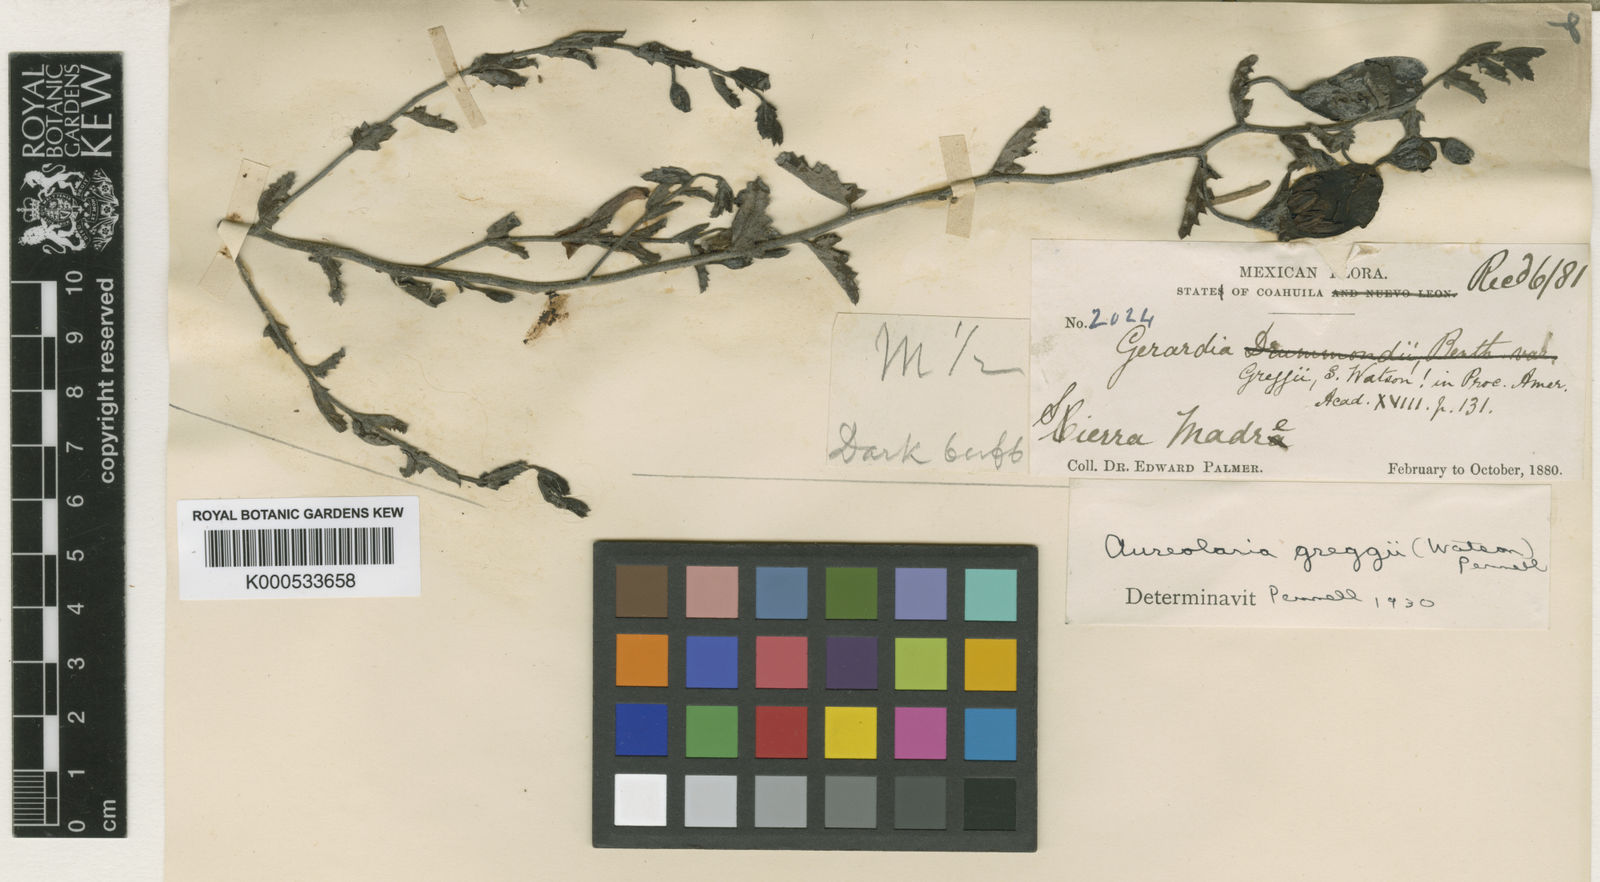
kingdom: Plantae
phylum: Tracheophyta
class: Magnoliopsida
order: Lamiales
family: Orobanchaceae
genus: Aureolaria
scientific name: Aureolaria greggii
